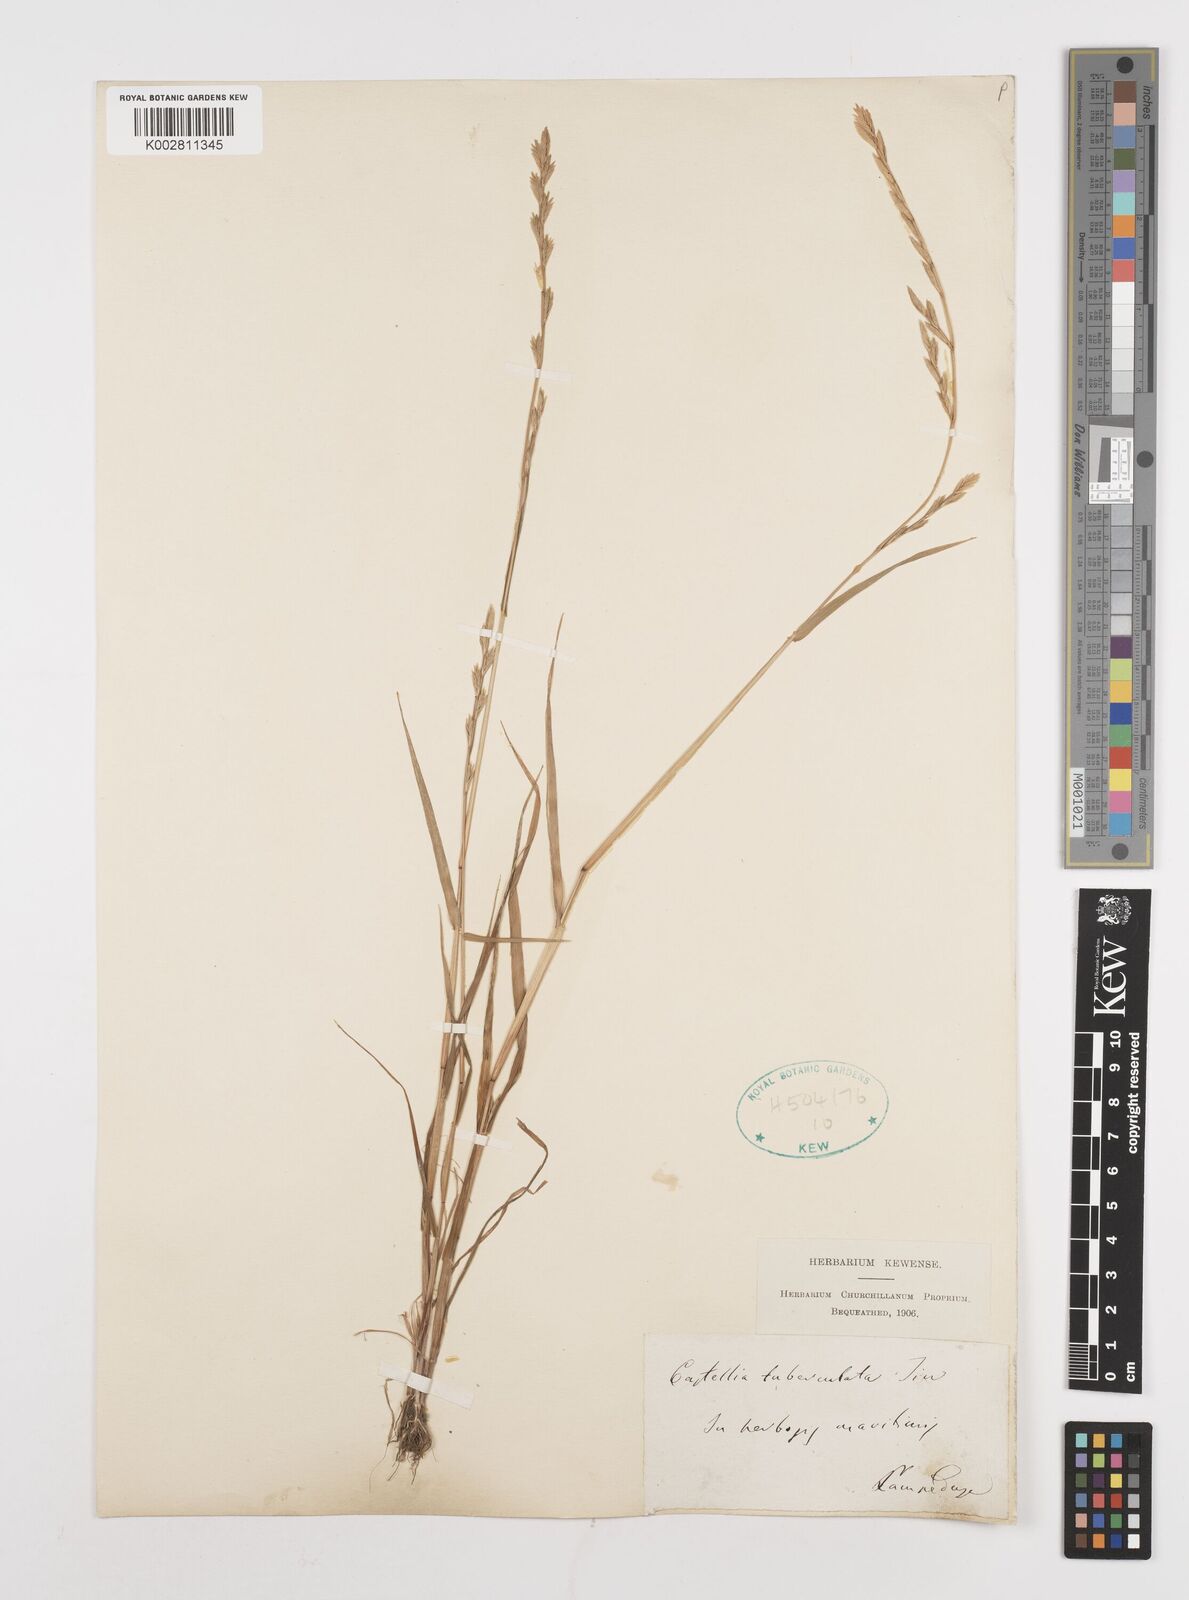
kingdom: Plantae
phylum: Tracheophyta
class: Liliopsida
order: Poales
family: Poaceae
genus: Castellia
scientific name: Castellia tuberculosa
